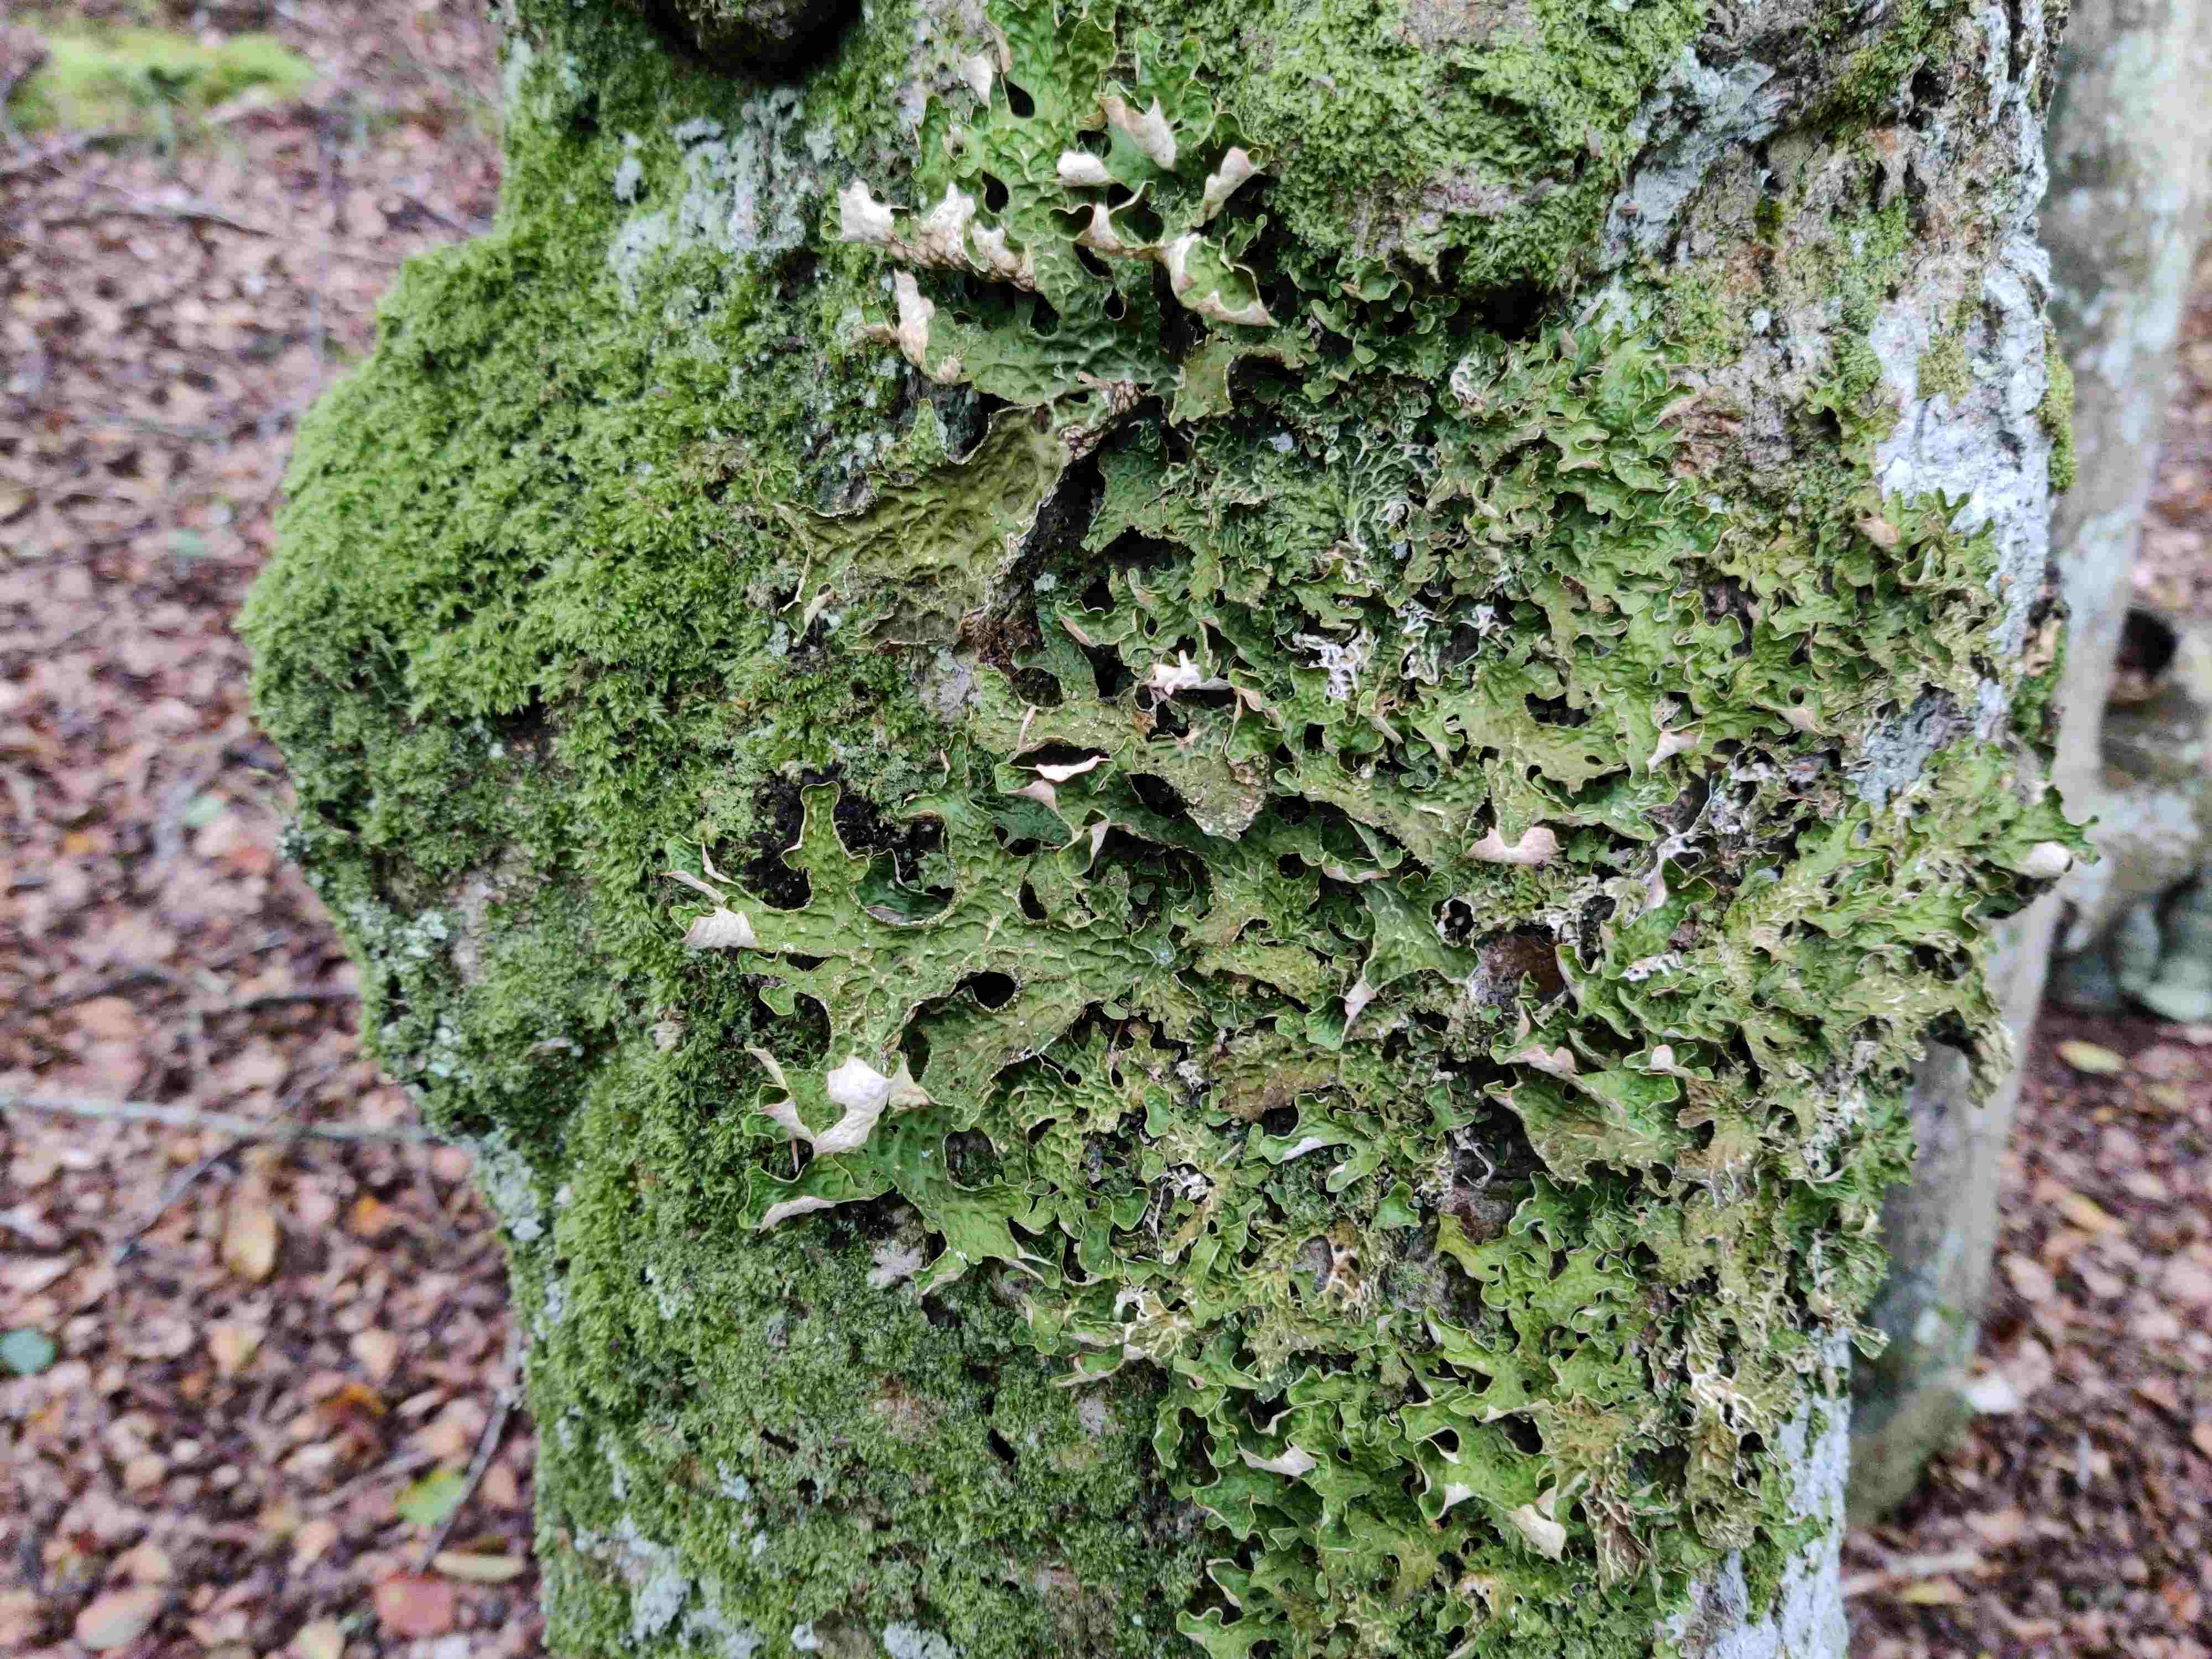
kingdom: Fungi
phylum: Ascomycota
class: Lecanoromycetes
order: Peltigerales
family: Lobariaceae
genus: Lobaria
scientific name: Lobaria pulmonaria
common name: almindelig lungelav
